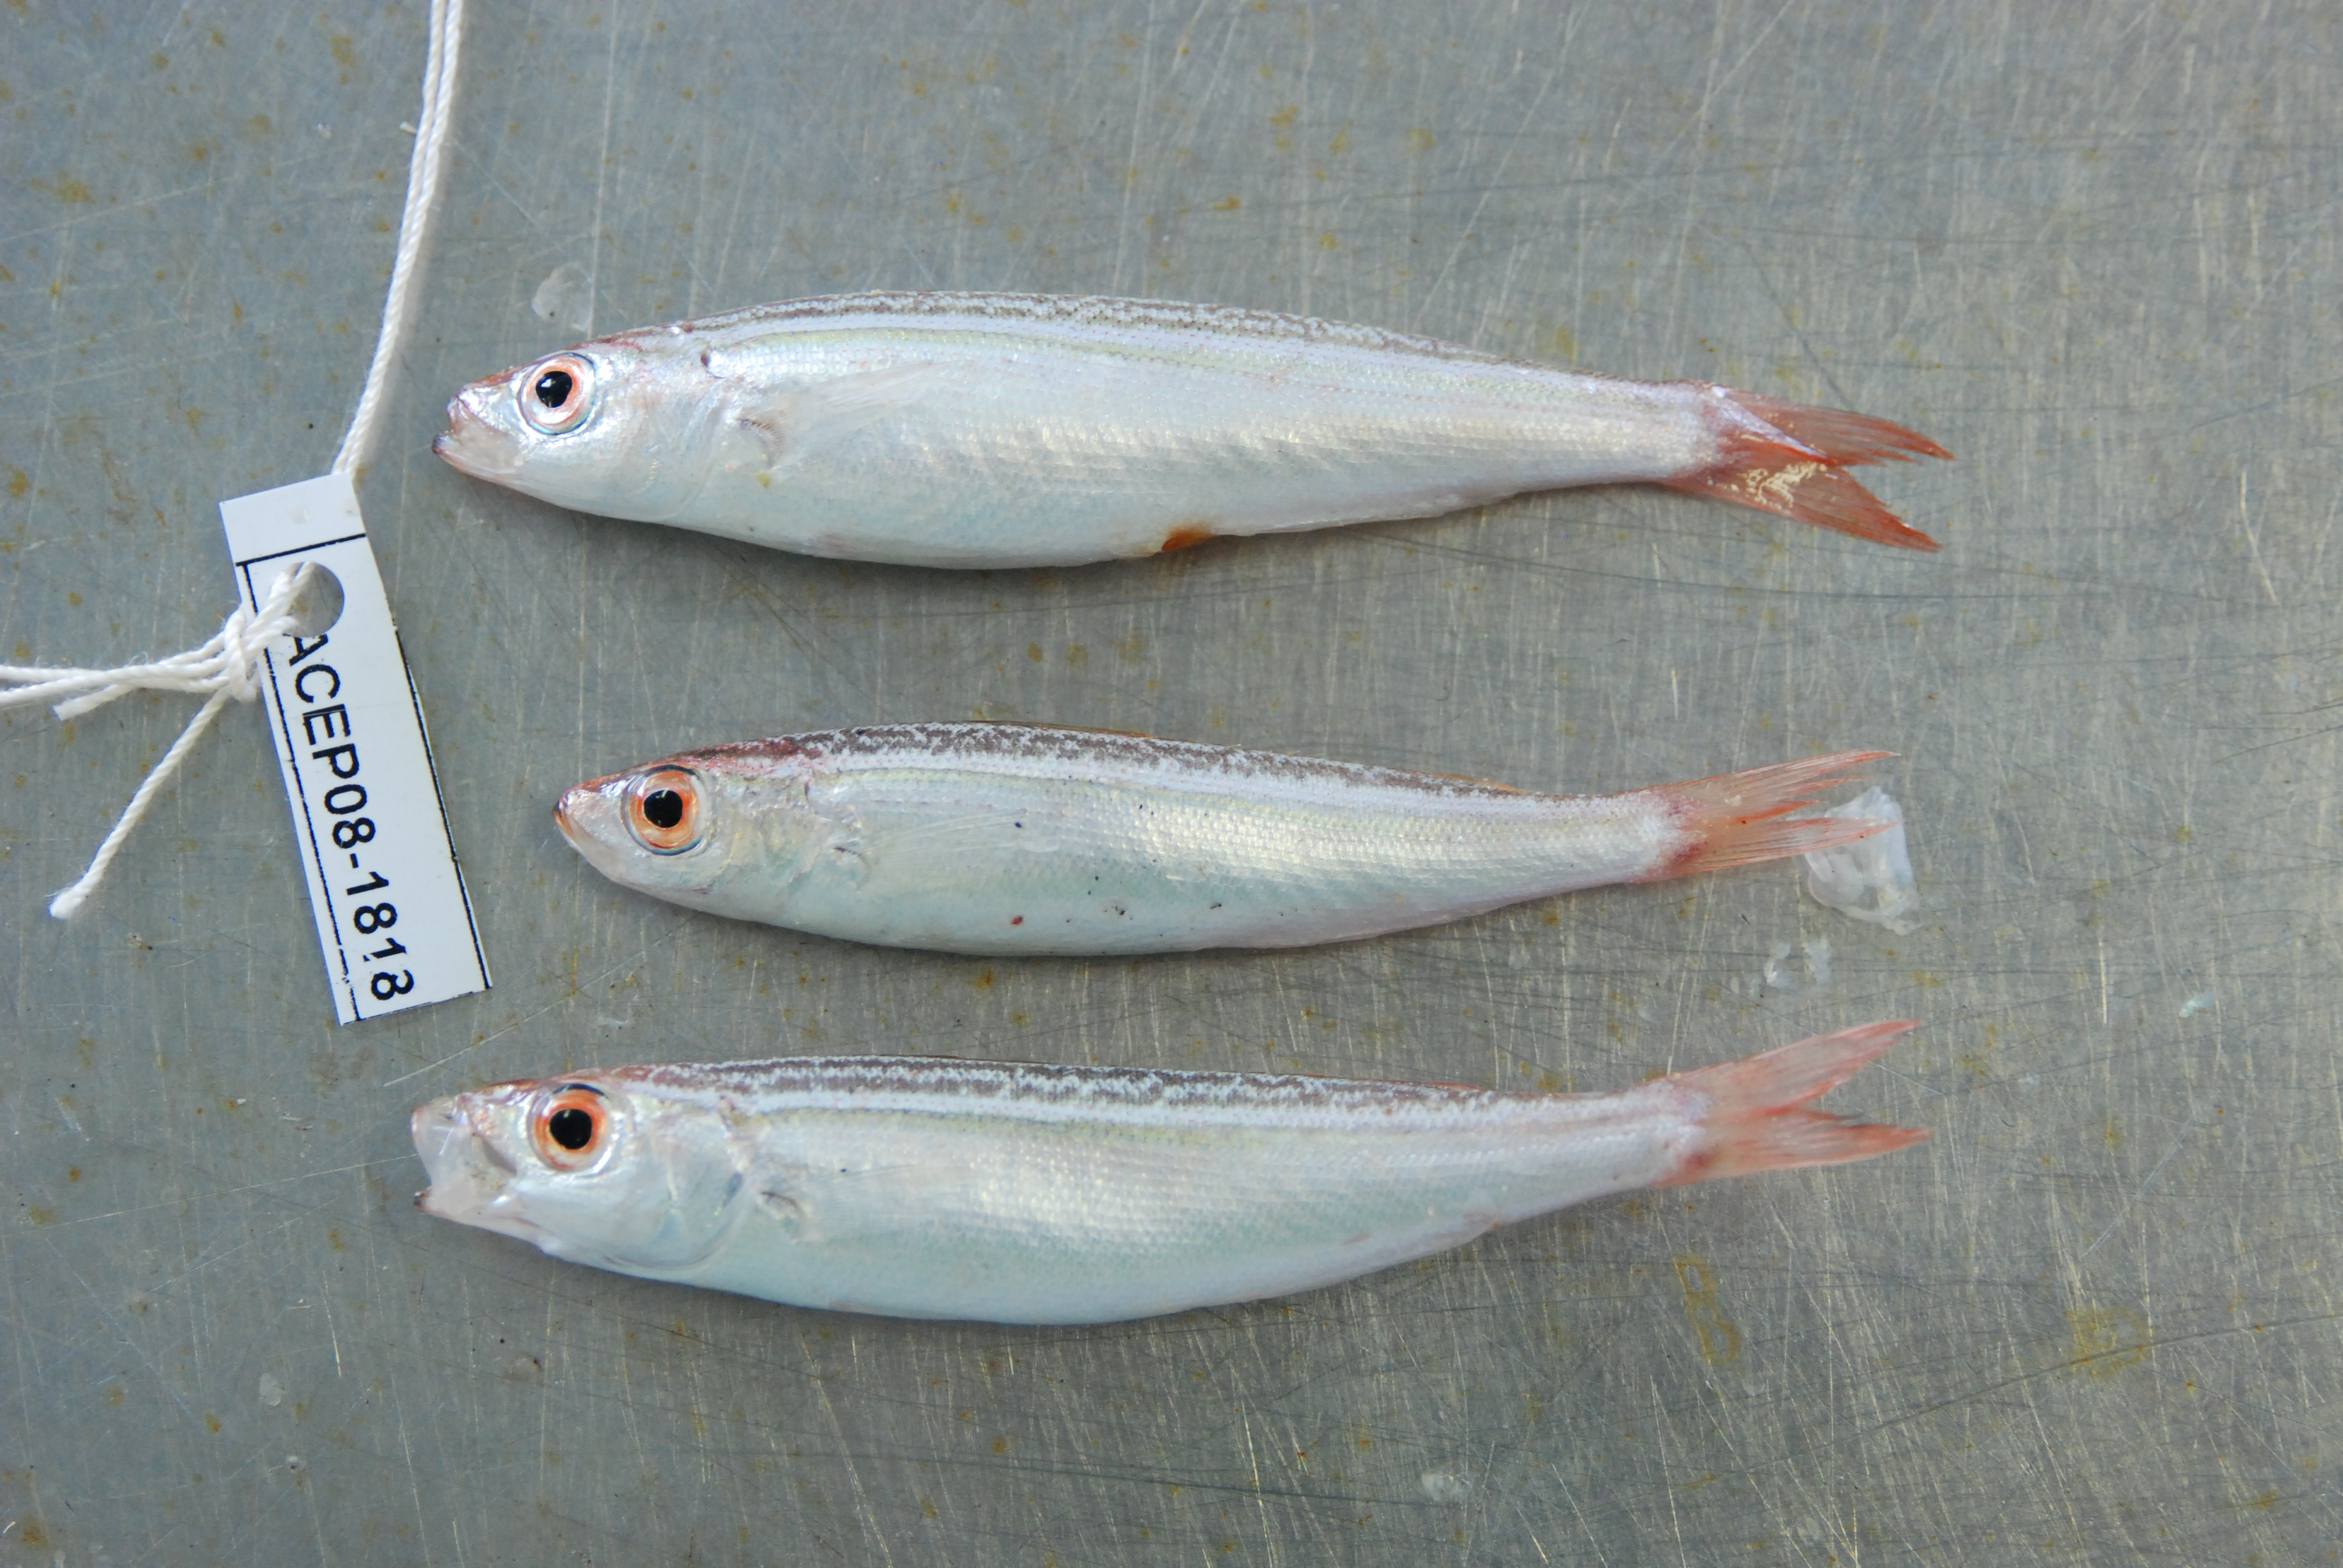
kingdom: Animalia
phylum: Chordata
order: Perciformes
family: Caesionidae
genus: Dipterygonotus
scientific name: Dipterygonotus balteatus
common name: Mottled fusilier
